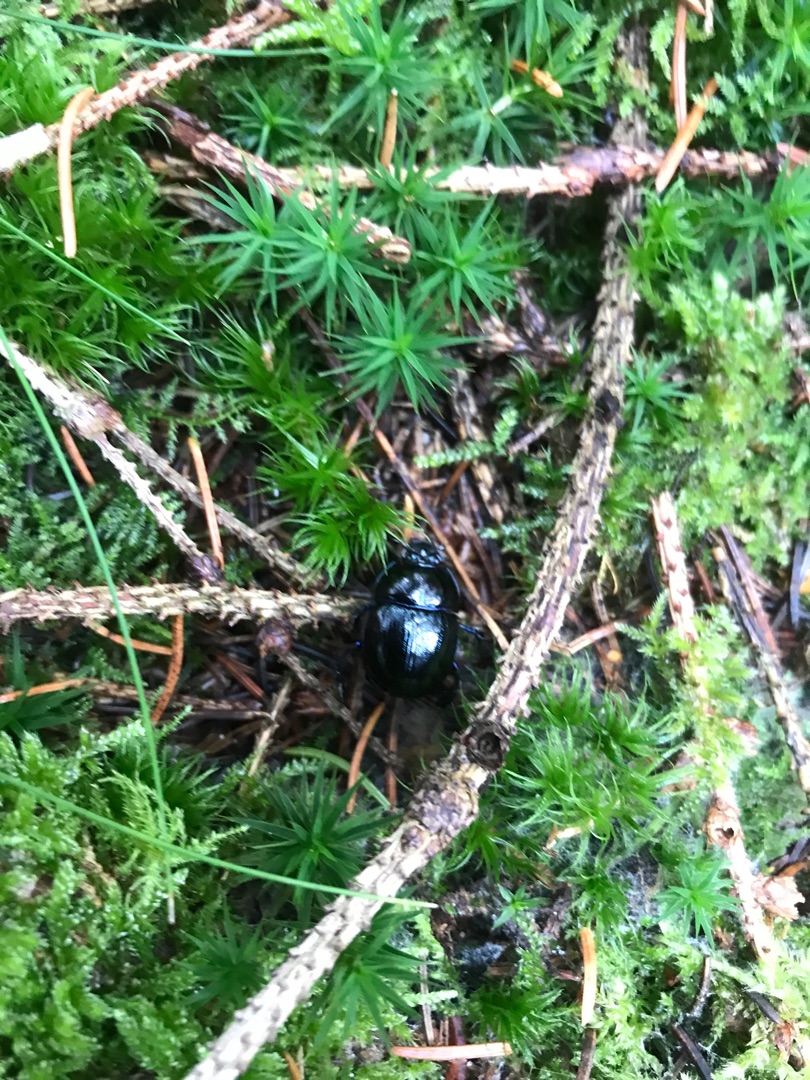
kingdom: Animalia
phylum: Arthropoda
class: Insecta
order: Coleoptera
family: Geotrupidae
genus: Anoplotrupes
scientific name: Anoplotrupes stercorosus
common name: Skovskarnbasse
